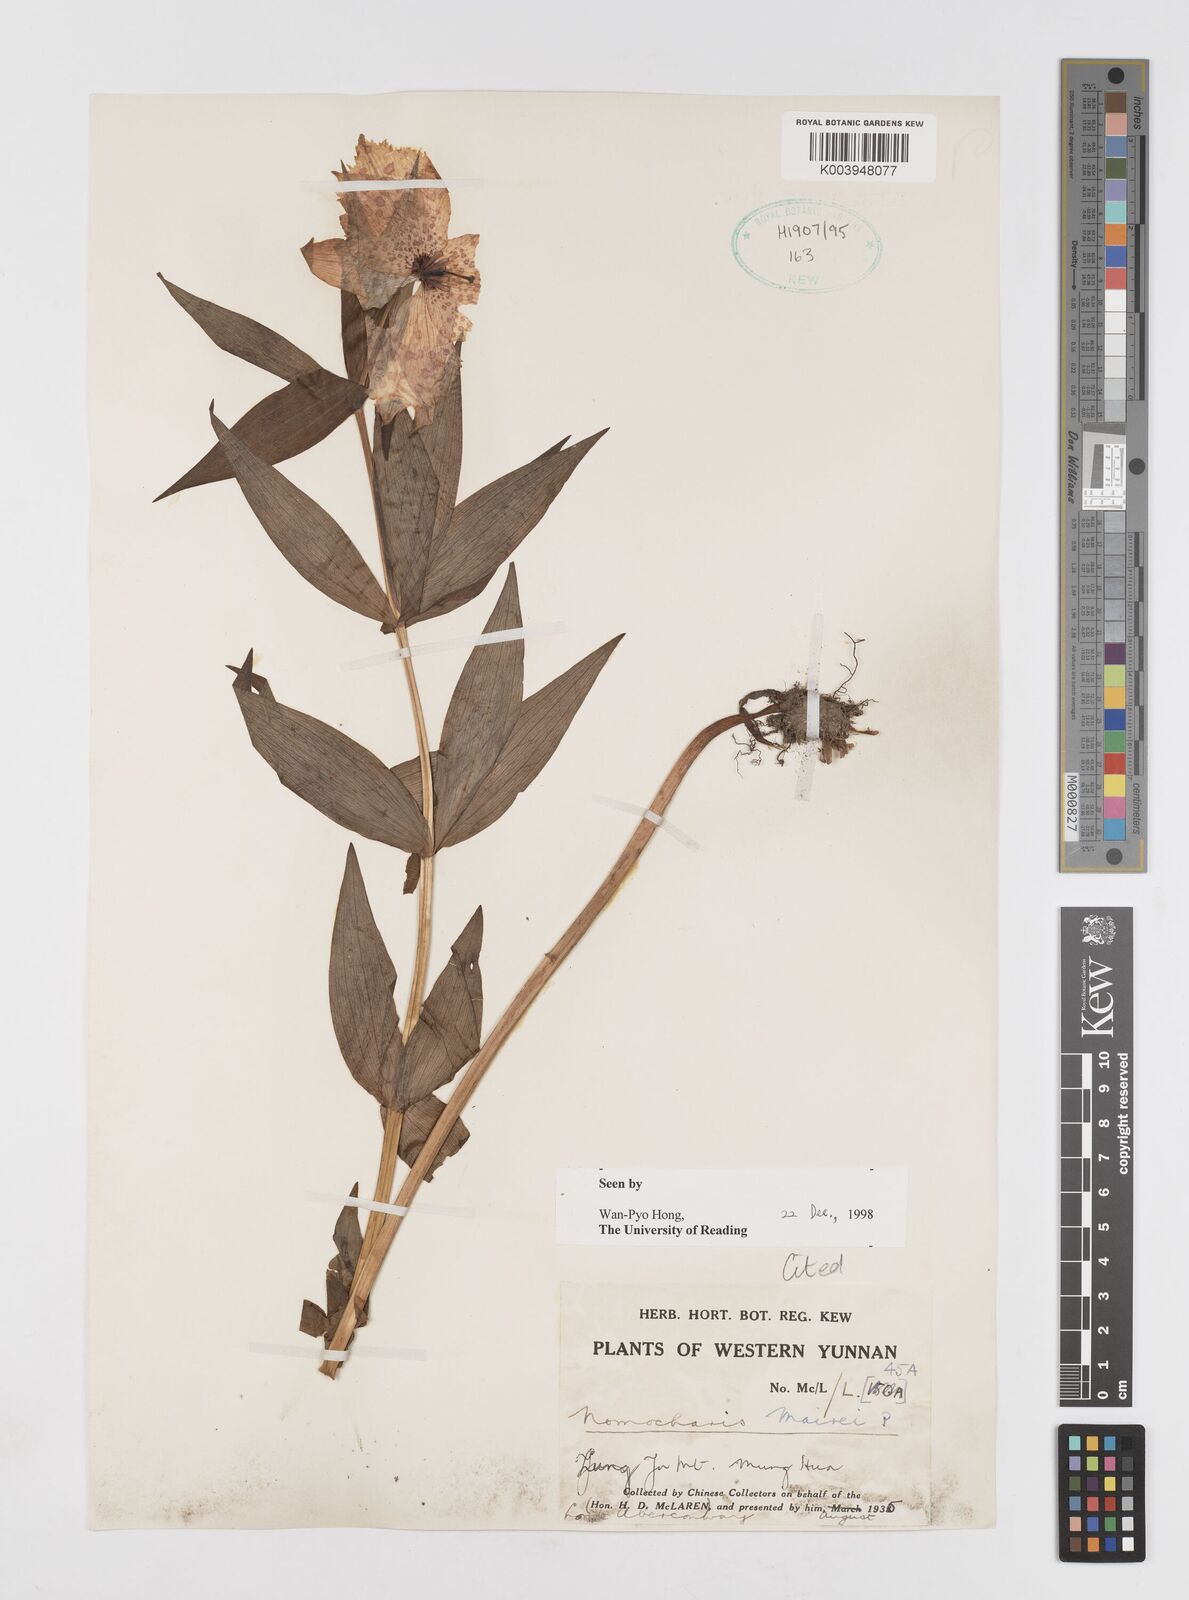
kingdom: Plantae
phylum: Tracheophyta
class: Liliopsida
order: Liliales
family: Liliaceae
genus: Lilium
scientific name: Lilium pardanthinum
